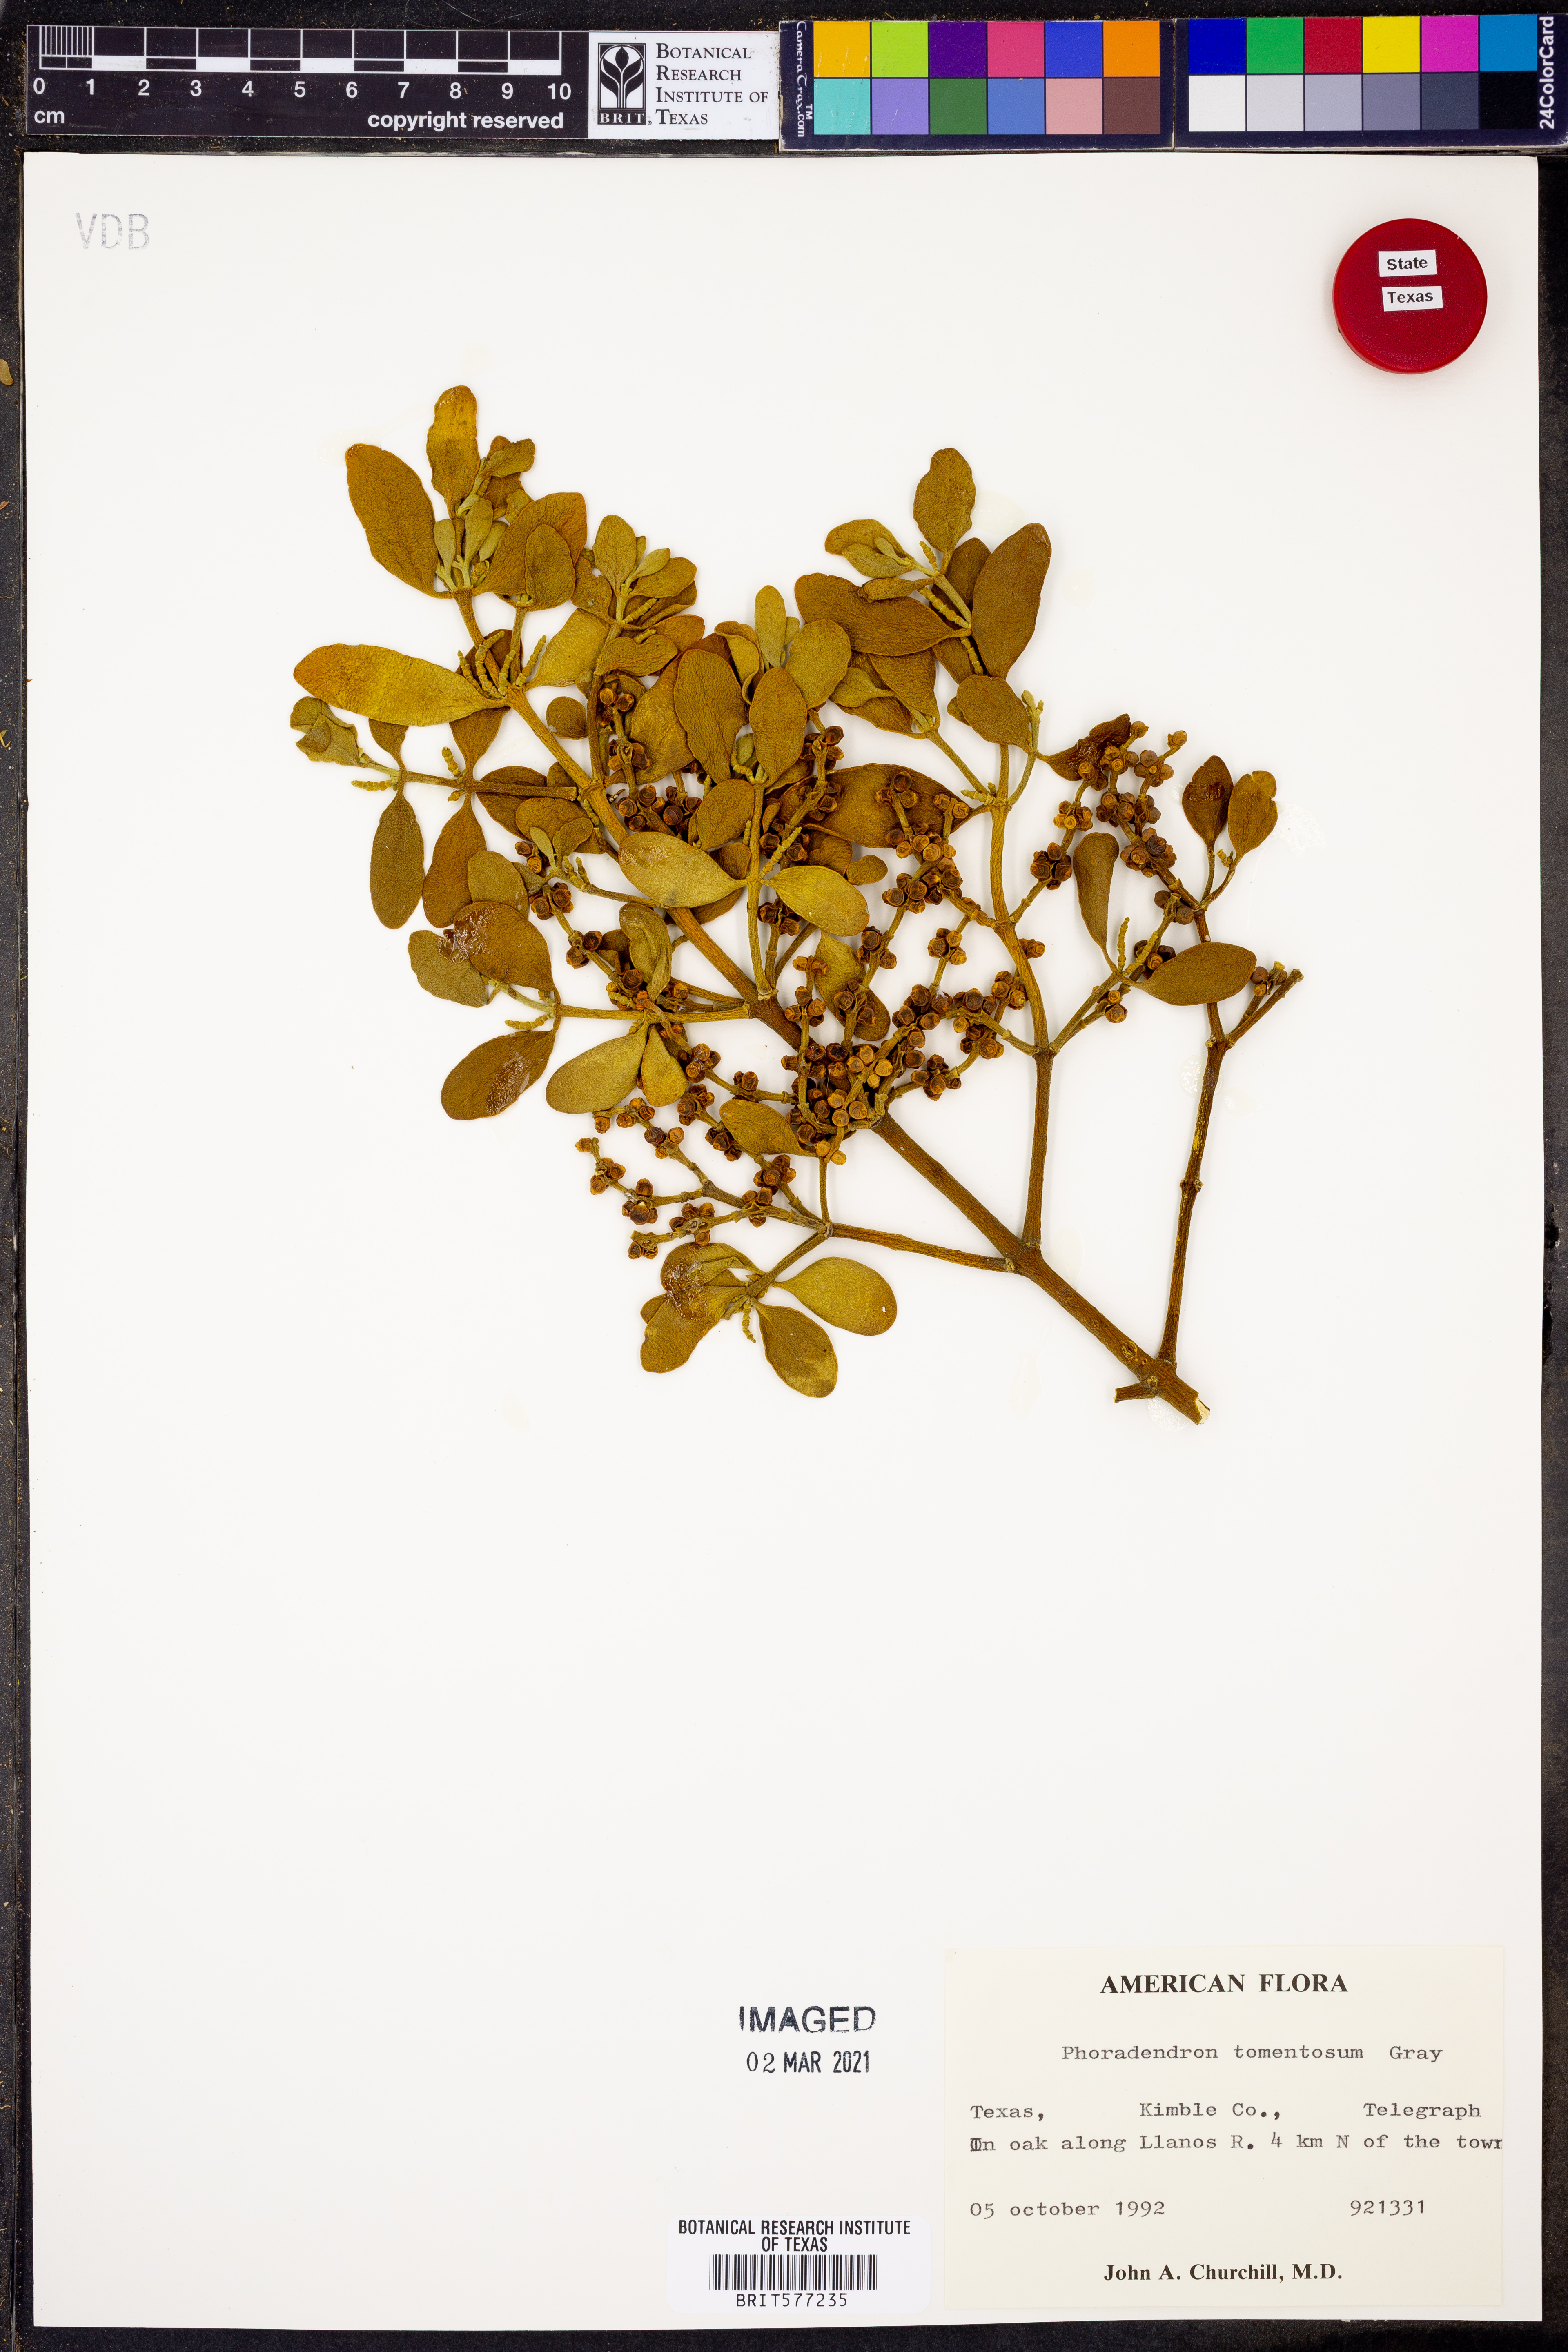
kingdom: Plantae
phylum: Tracheophyta
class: Magnoliopsida
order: Santalales
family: Viscaceae
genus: Phoradendron
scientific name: Phoradendron leucarpum
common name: Pacific mistletoe
